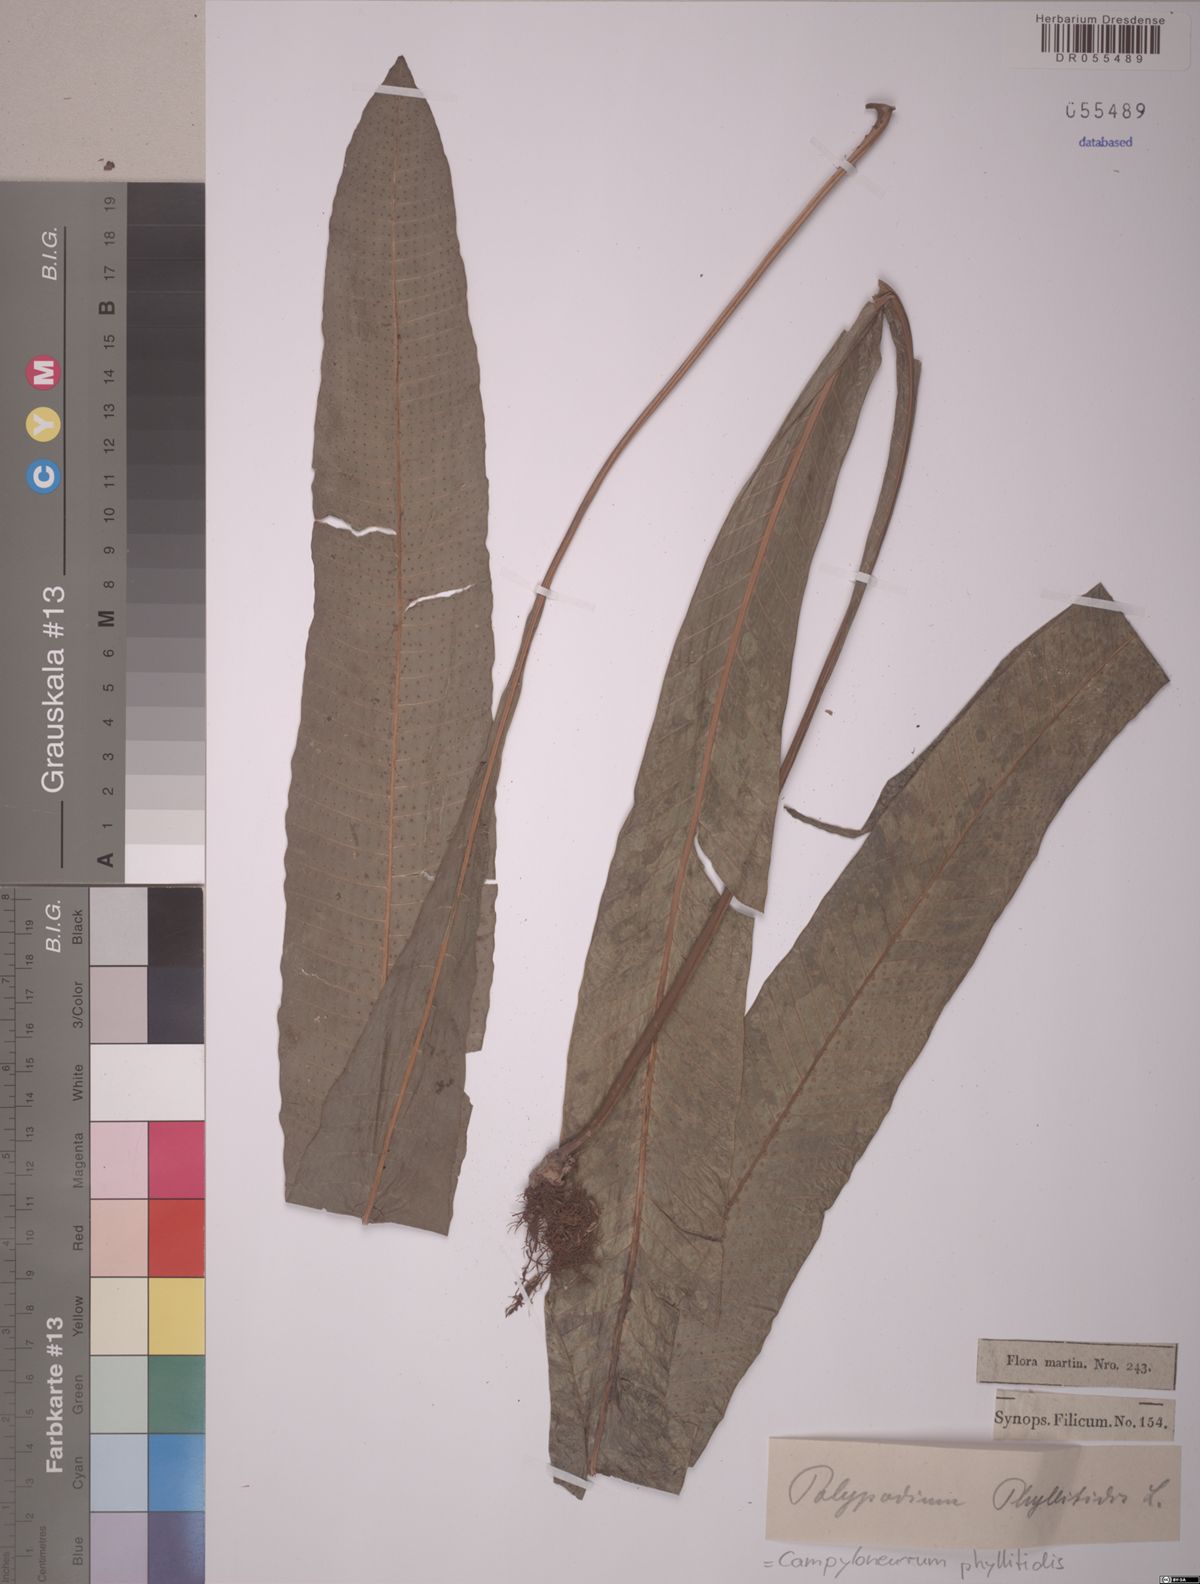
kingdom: Plantae
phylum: Tracheophyta
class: Polypodiopsida
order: Polypodiales
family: Polypodiaceae
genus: Campyloneurum
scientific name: Campyloneurum phyllitidis
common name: Cow-tongue fern
